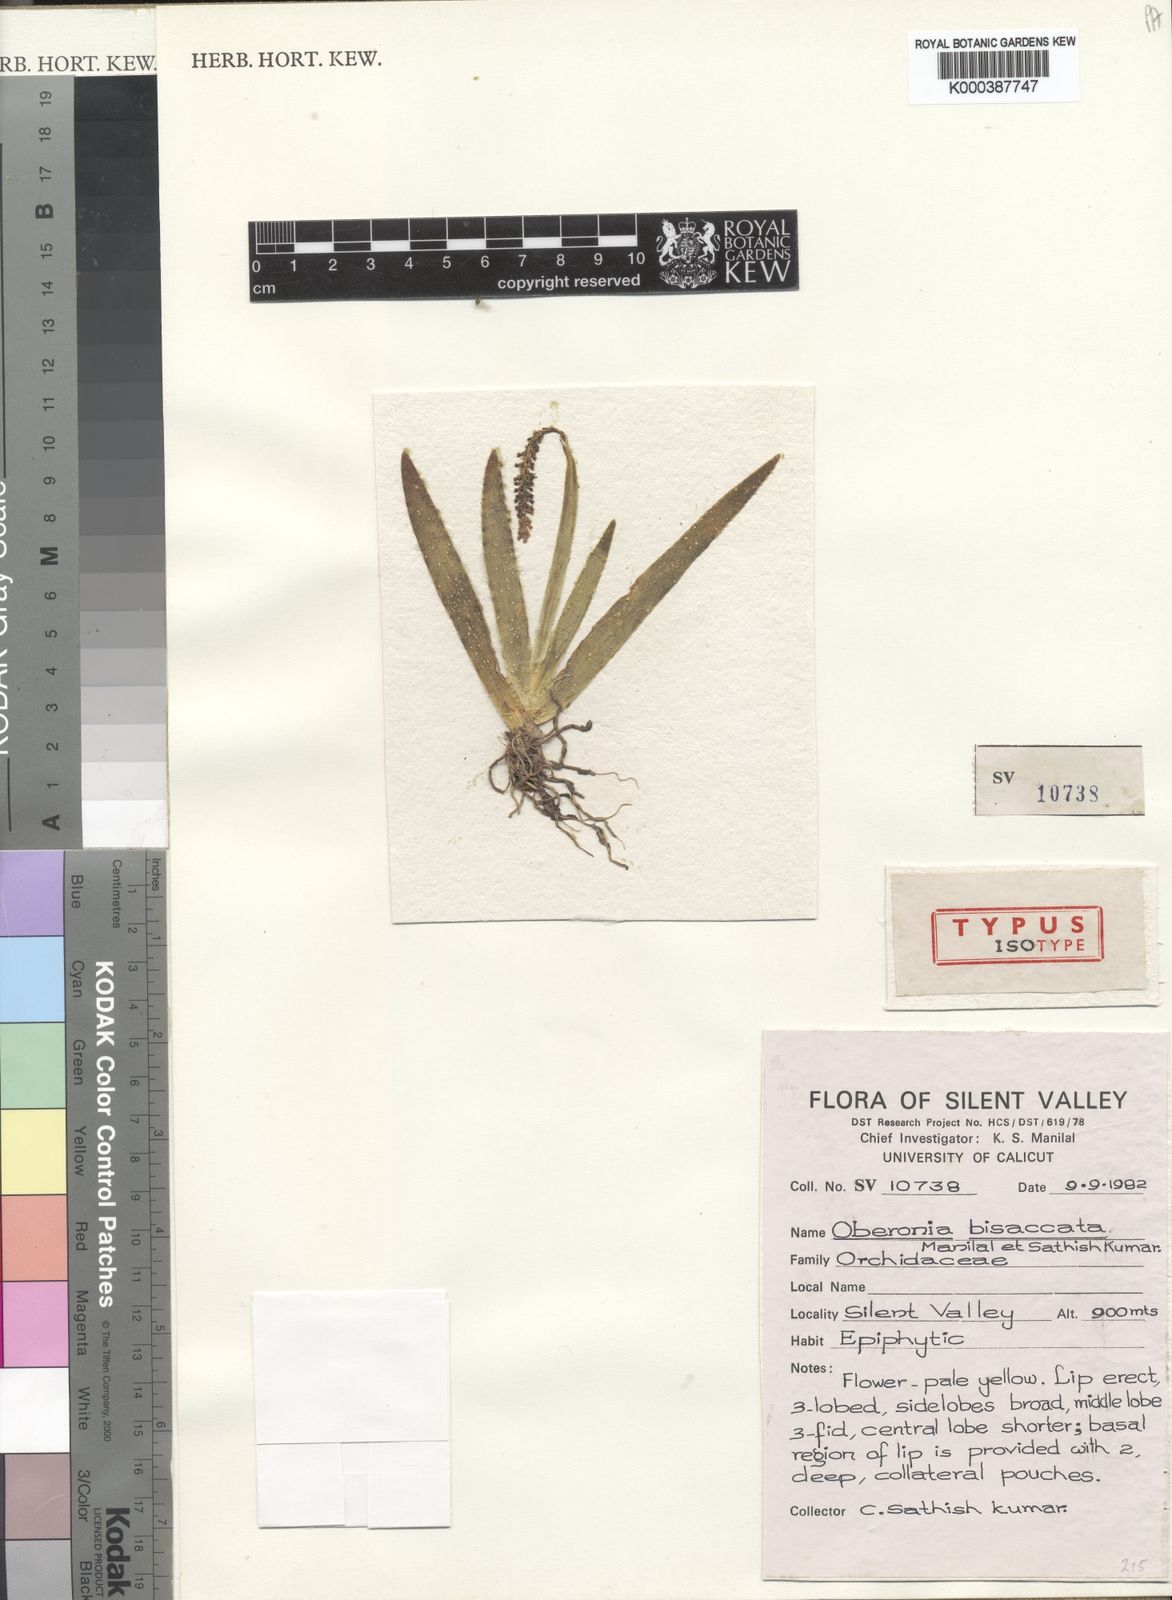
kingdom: Plantae
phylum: Tracheophyta
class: Liliopsida
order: Asparagales
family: Orchidaceae
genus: Oberonia
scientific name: Oberonia platycaulon
